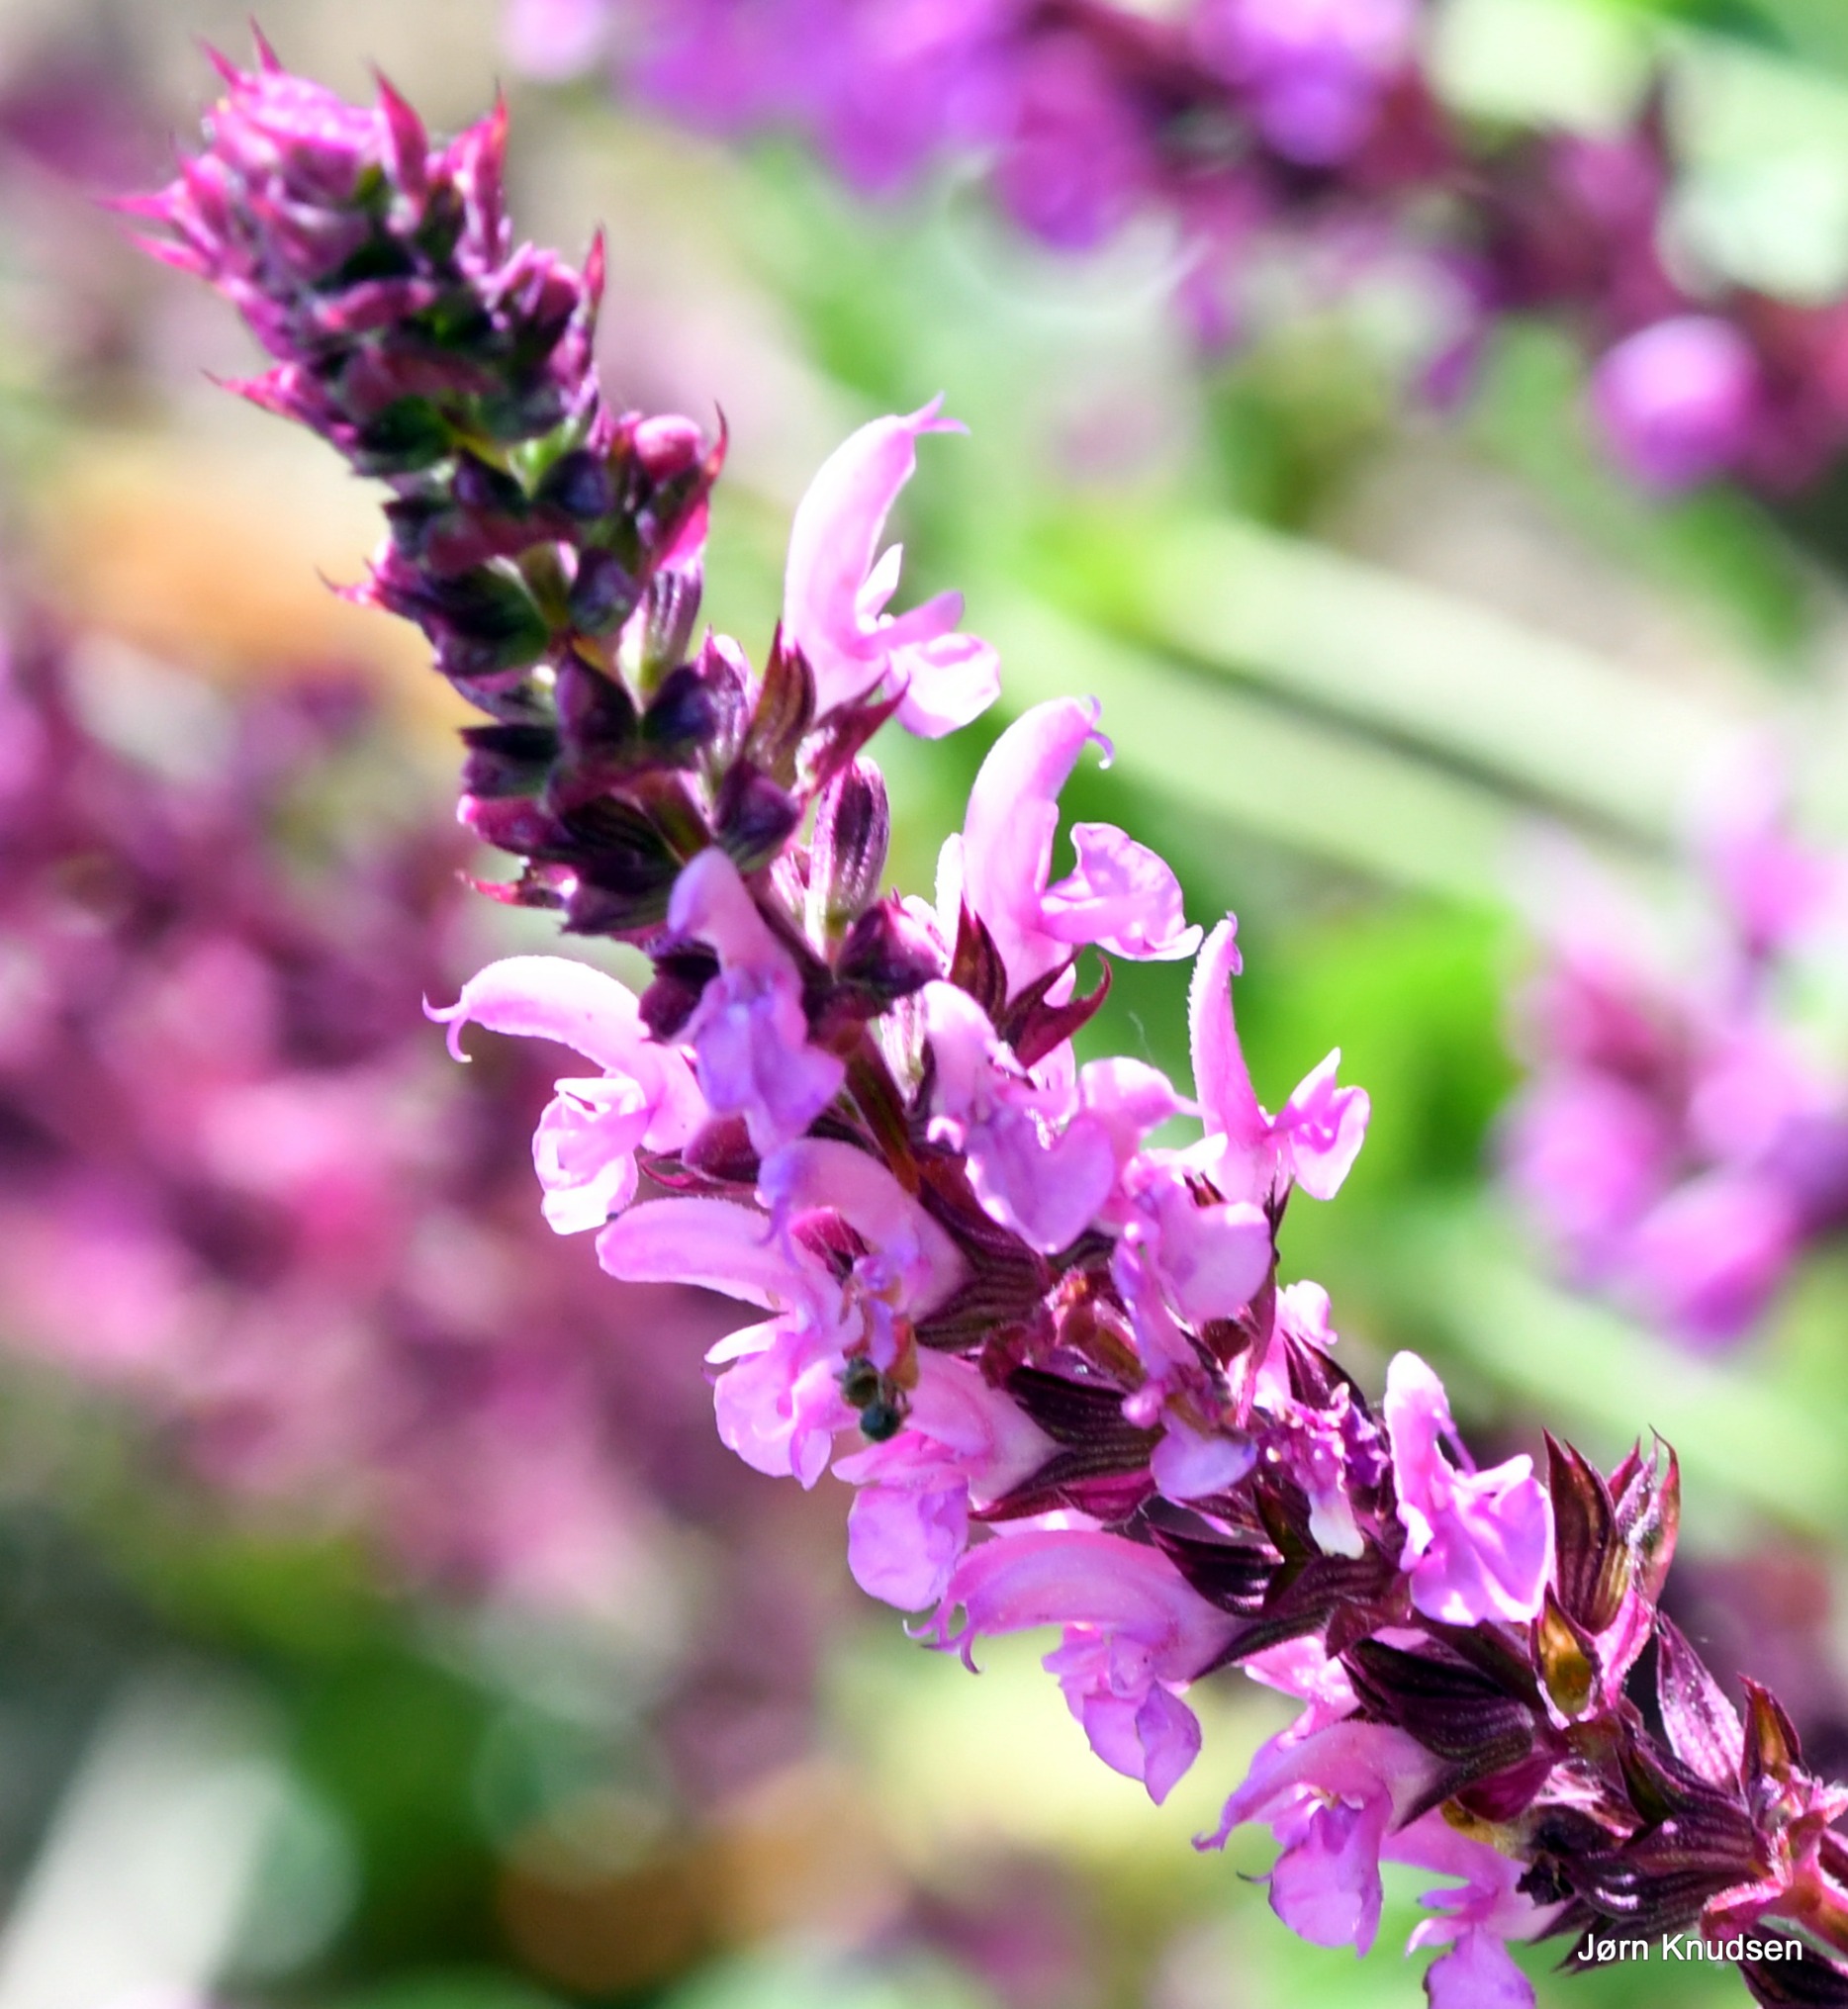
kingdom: Plantae
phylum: Tracheophyta
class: Magnoliopsida
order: Lamiales
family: Lamiaceae
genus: Salvia
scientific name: Salvia nemorosa
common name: Småblomstret salvie
